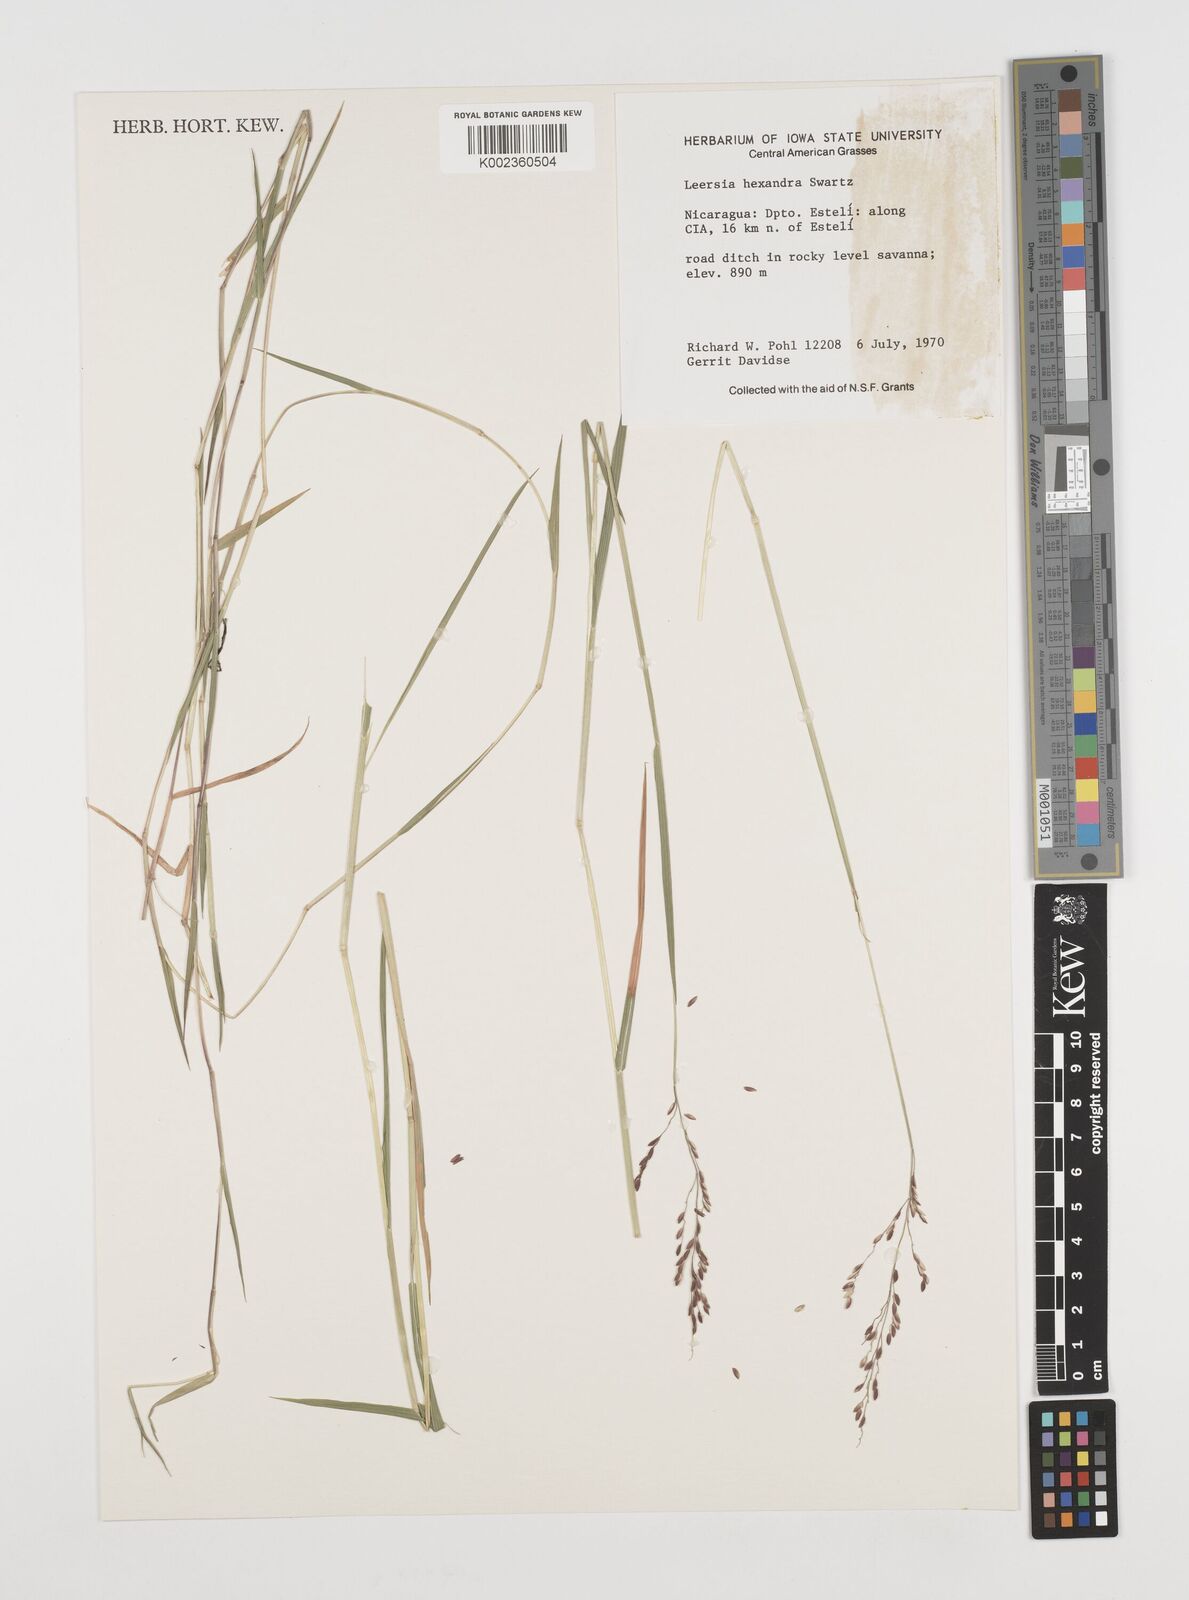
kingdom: Plantae
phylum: Tracheophyta
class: Liliopsida
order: Poales
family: Poaceae
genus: Leersia
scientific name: Leersia hexandra
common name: Southern cut grass
